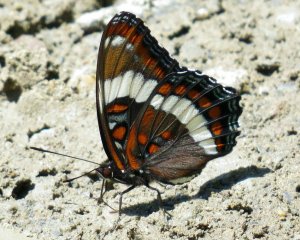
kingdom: Animalia
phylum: Arthropoda
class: Insecta
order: Lepidoptera
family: Nymphalidae
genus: Limenitis
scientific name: Limenitis arthemis
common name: Red-spotted Admiral
